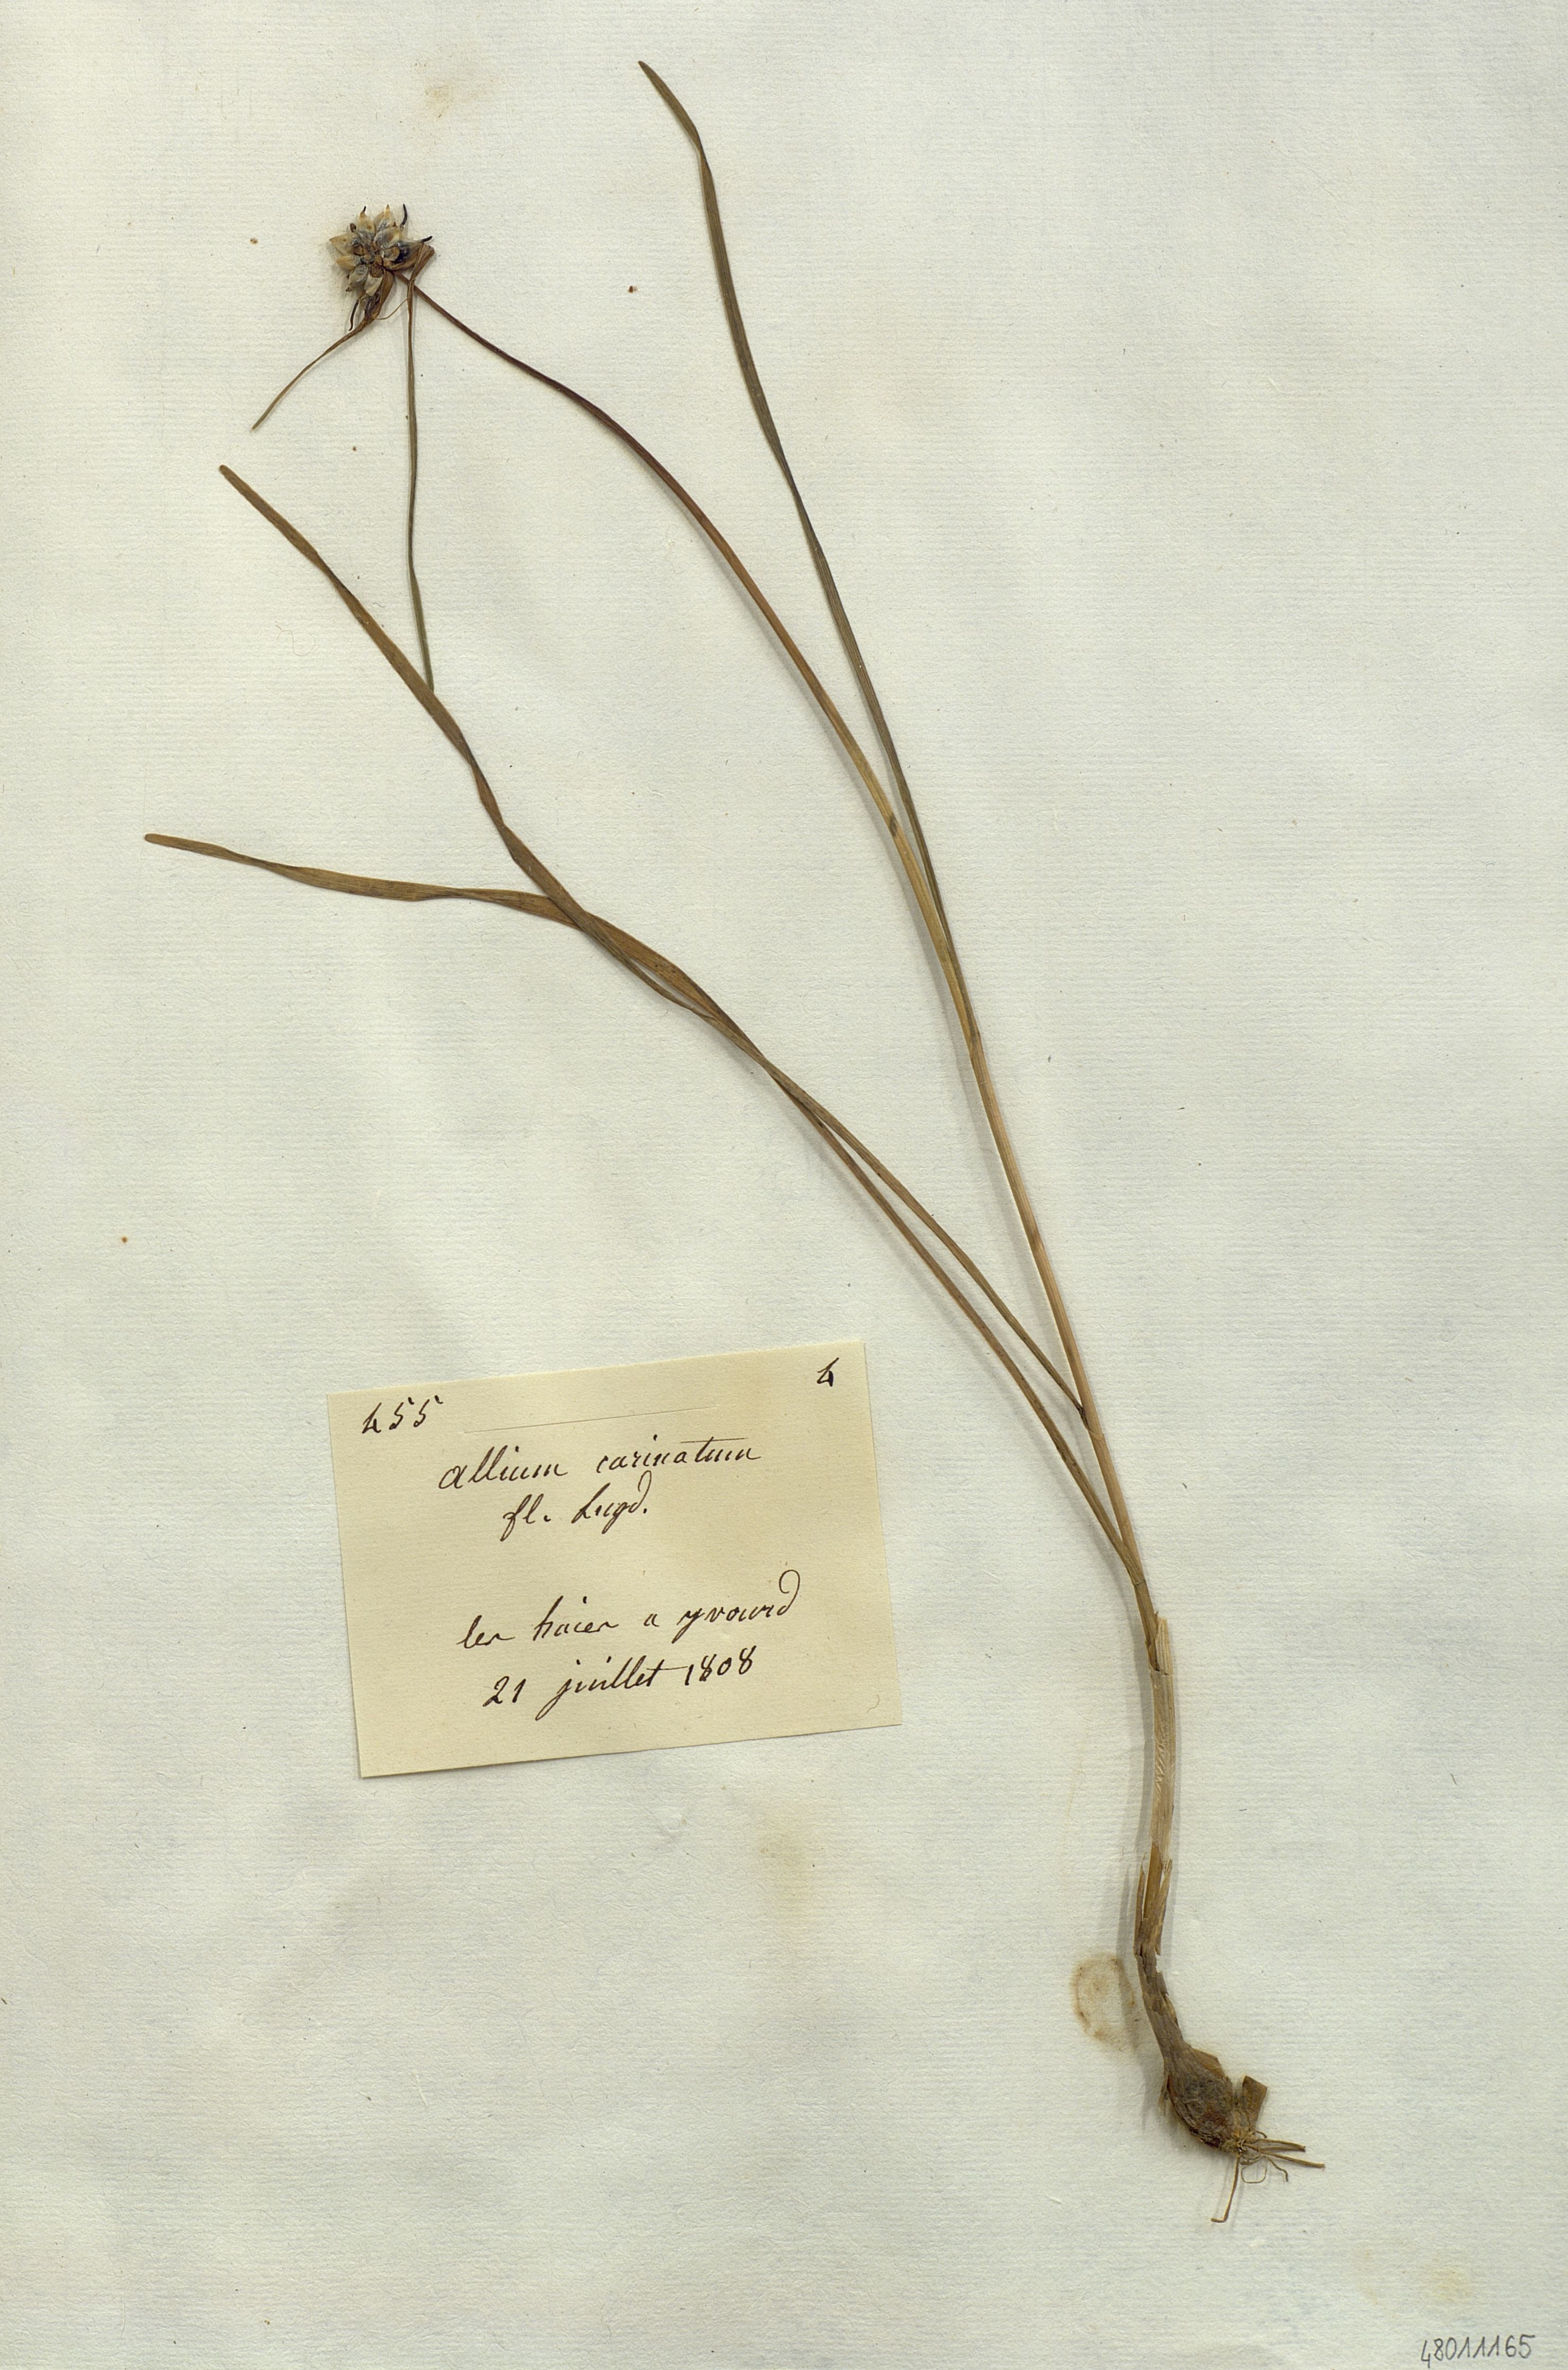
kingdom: Plantae
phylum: Tracheophyta
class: Liliopsida
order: Liliales
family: Liliaceae
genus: Allium
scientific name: Allium
